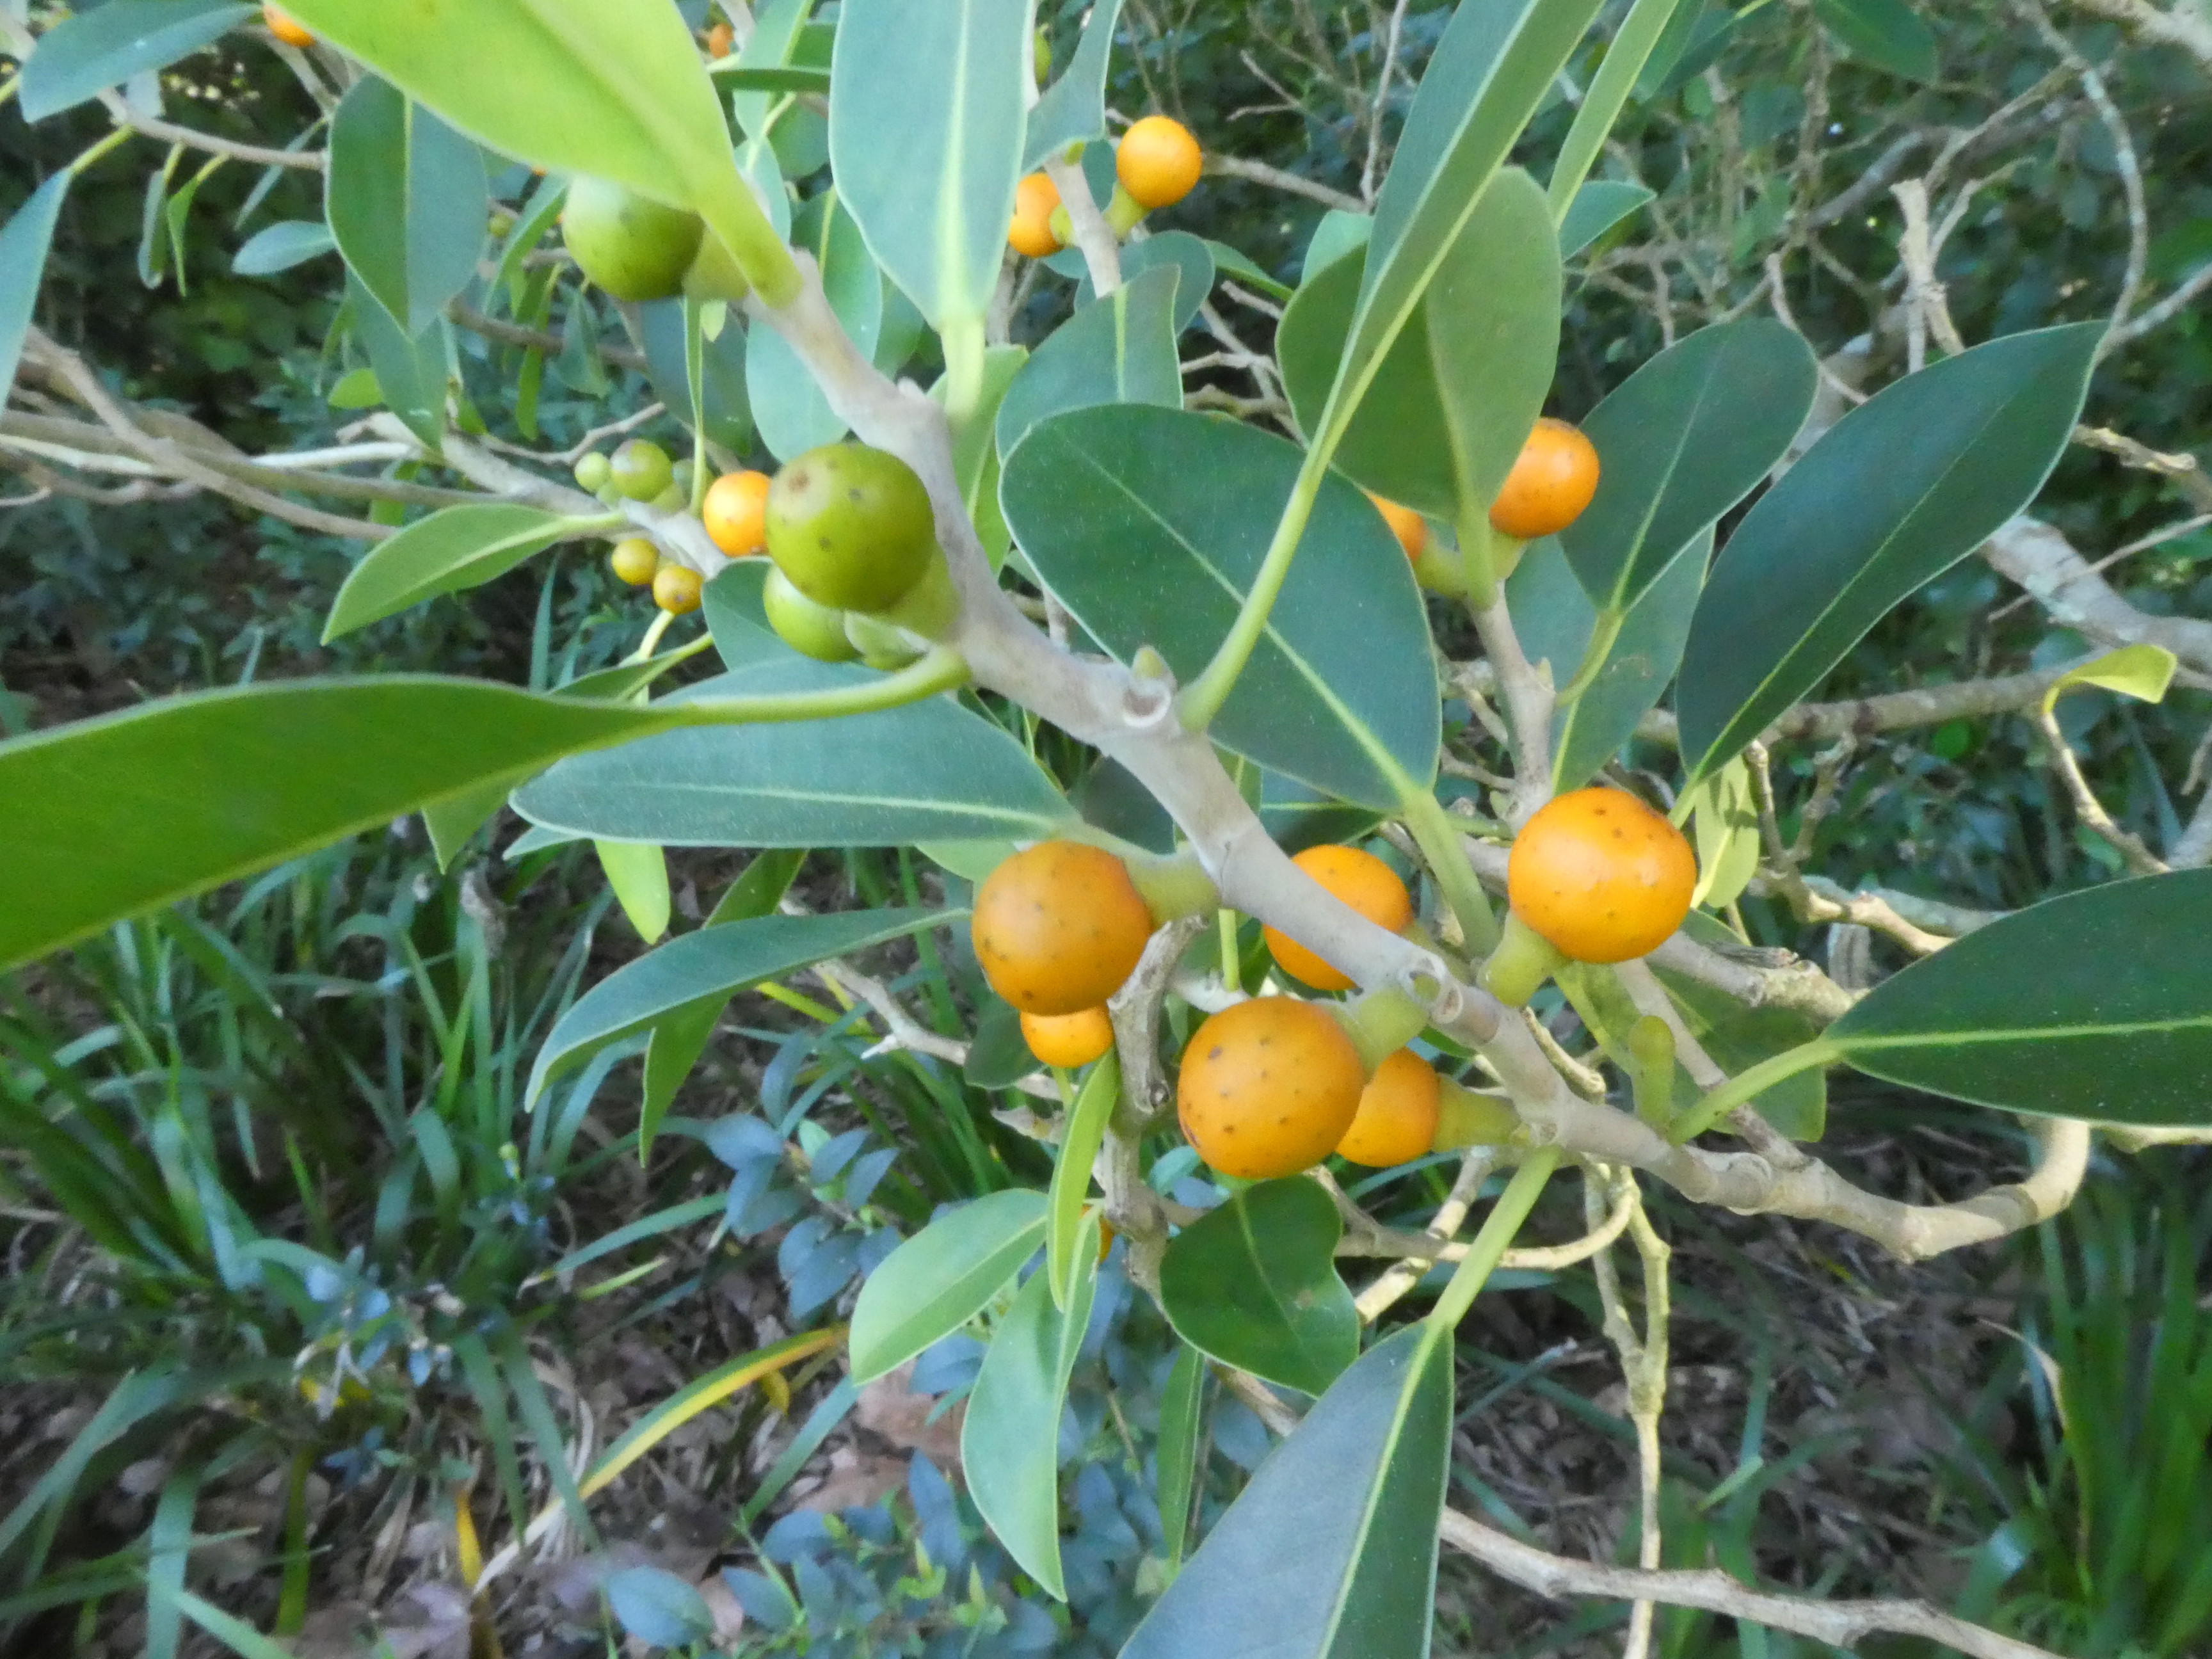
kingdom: Plantae
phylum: Tracheophyta
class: Magnoliopsida
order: Rosales
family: Moraceae
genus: Ficus
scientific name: Ficus obliqua
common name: Small-leaf fig
